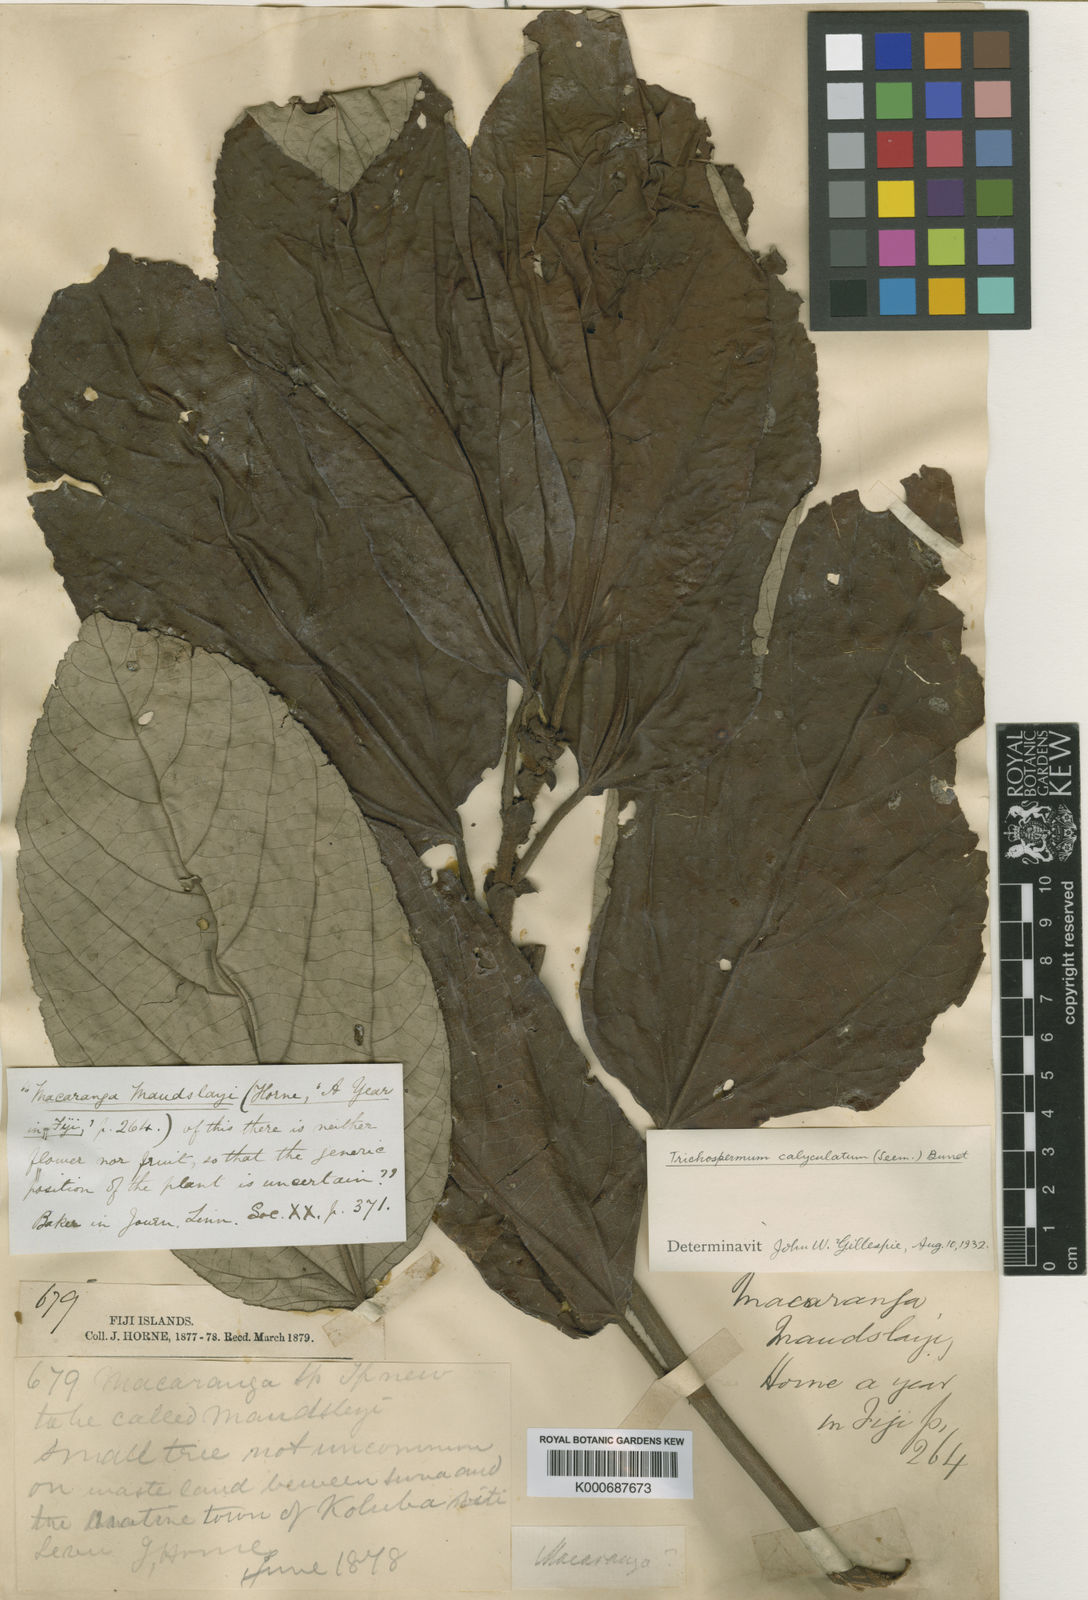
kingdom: Plantae
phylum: Tracheophyta
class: Magnoliopsida
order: Malvales
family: Malvaceae
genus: Trichospermum
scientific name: Trichospermum calyculatum
